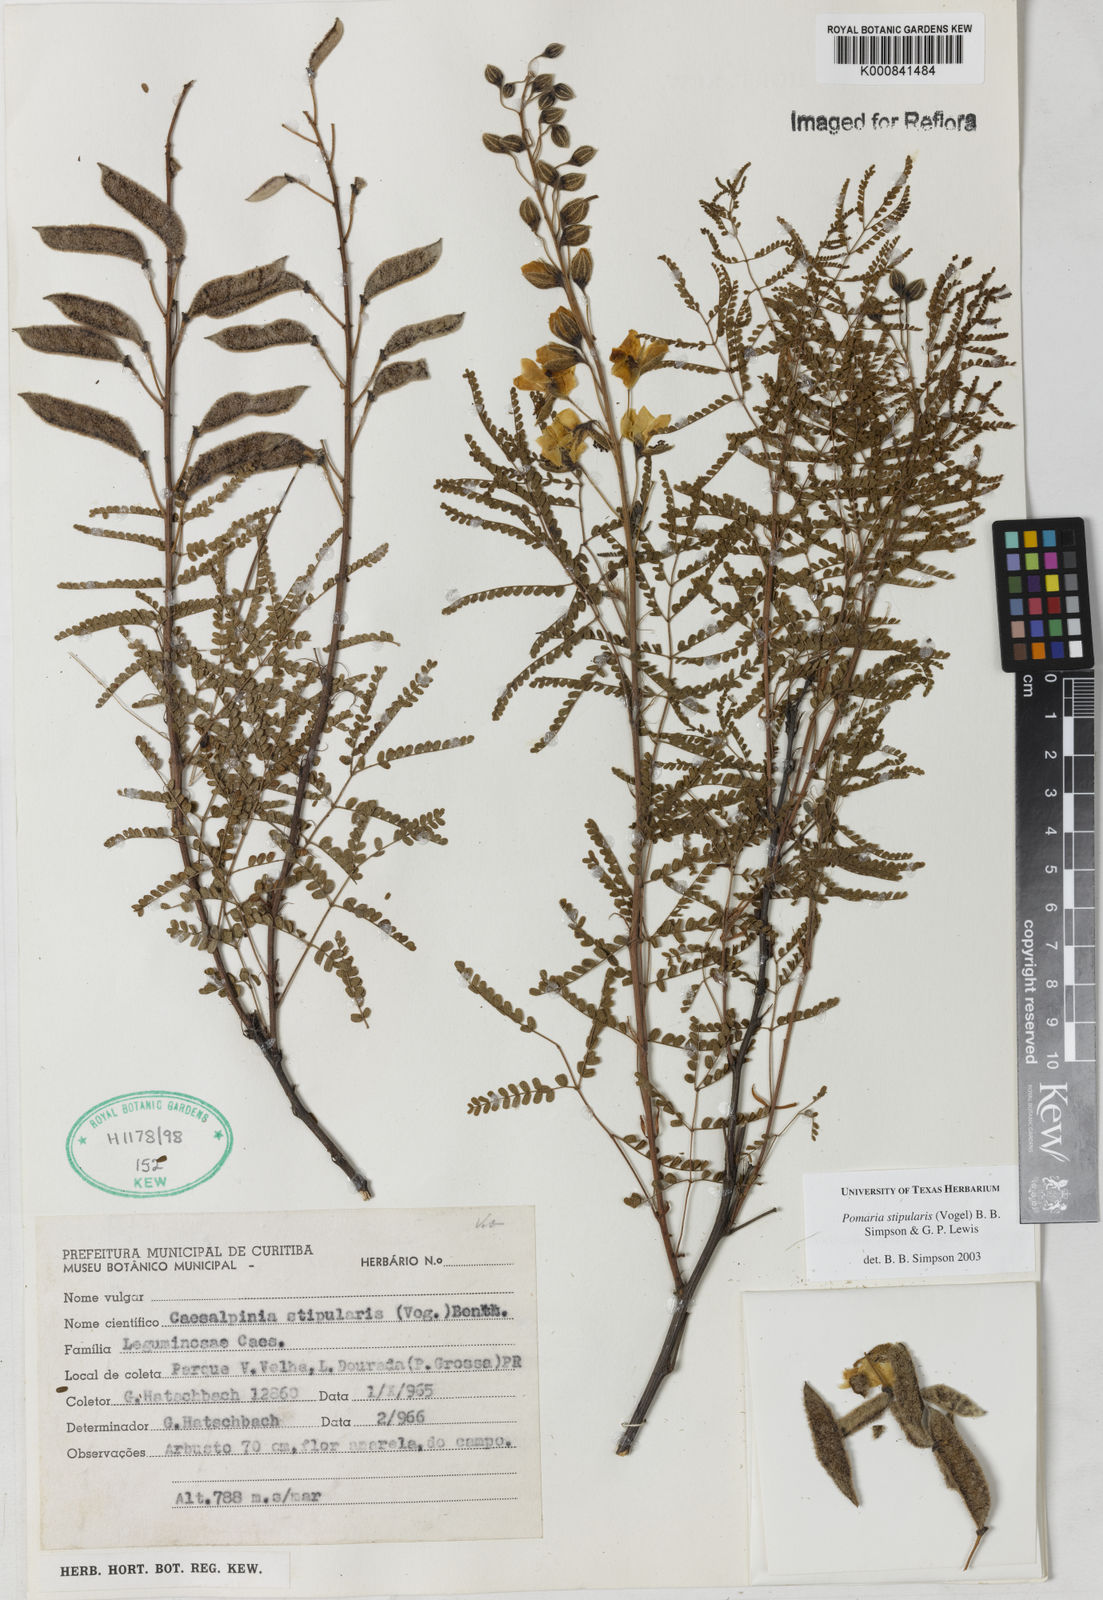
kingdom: Plantae
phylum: Tracheophyta
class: Magnoliopsida
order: Fabales
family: Fabaceae
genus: Pomaria
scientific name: Pomaria stipularis
